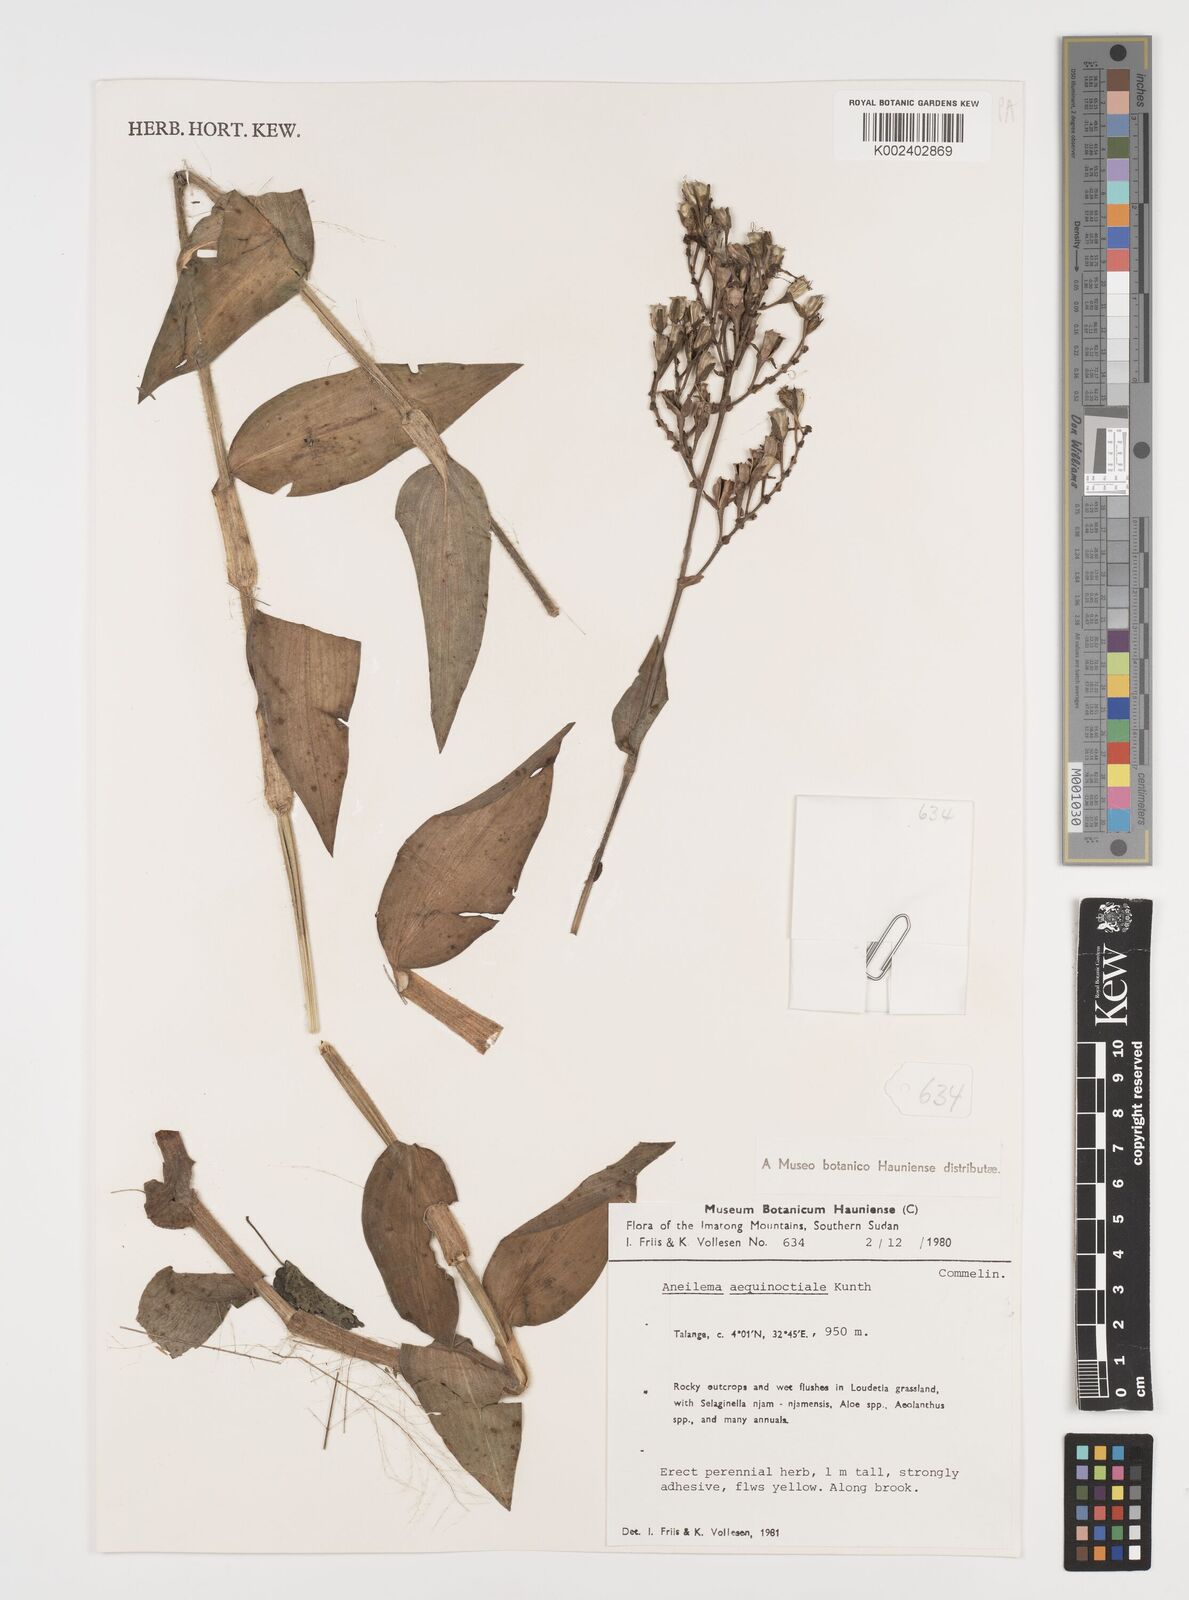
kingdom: Plantae
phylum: Tracheophyta
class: Liliopsida
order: Commelinales
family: Commelinaceae
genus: Aneilema
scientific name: Aneilema aequinoctiale
